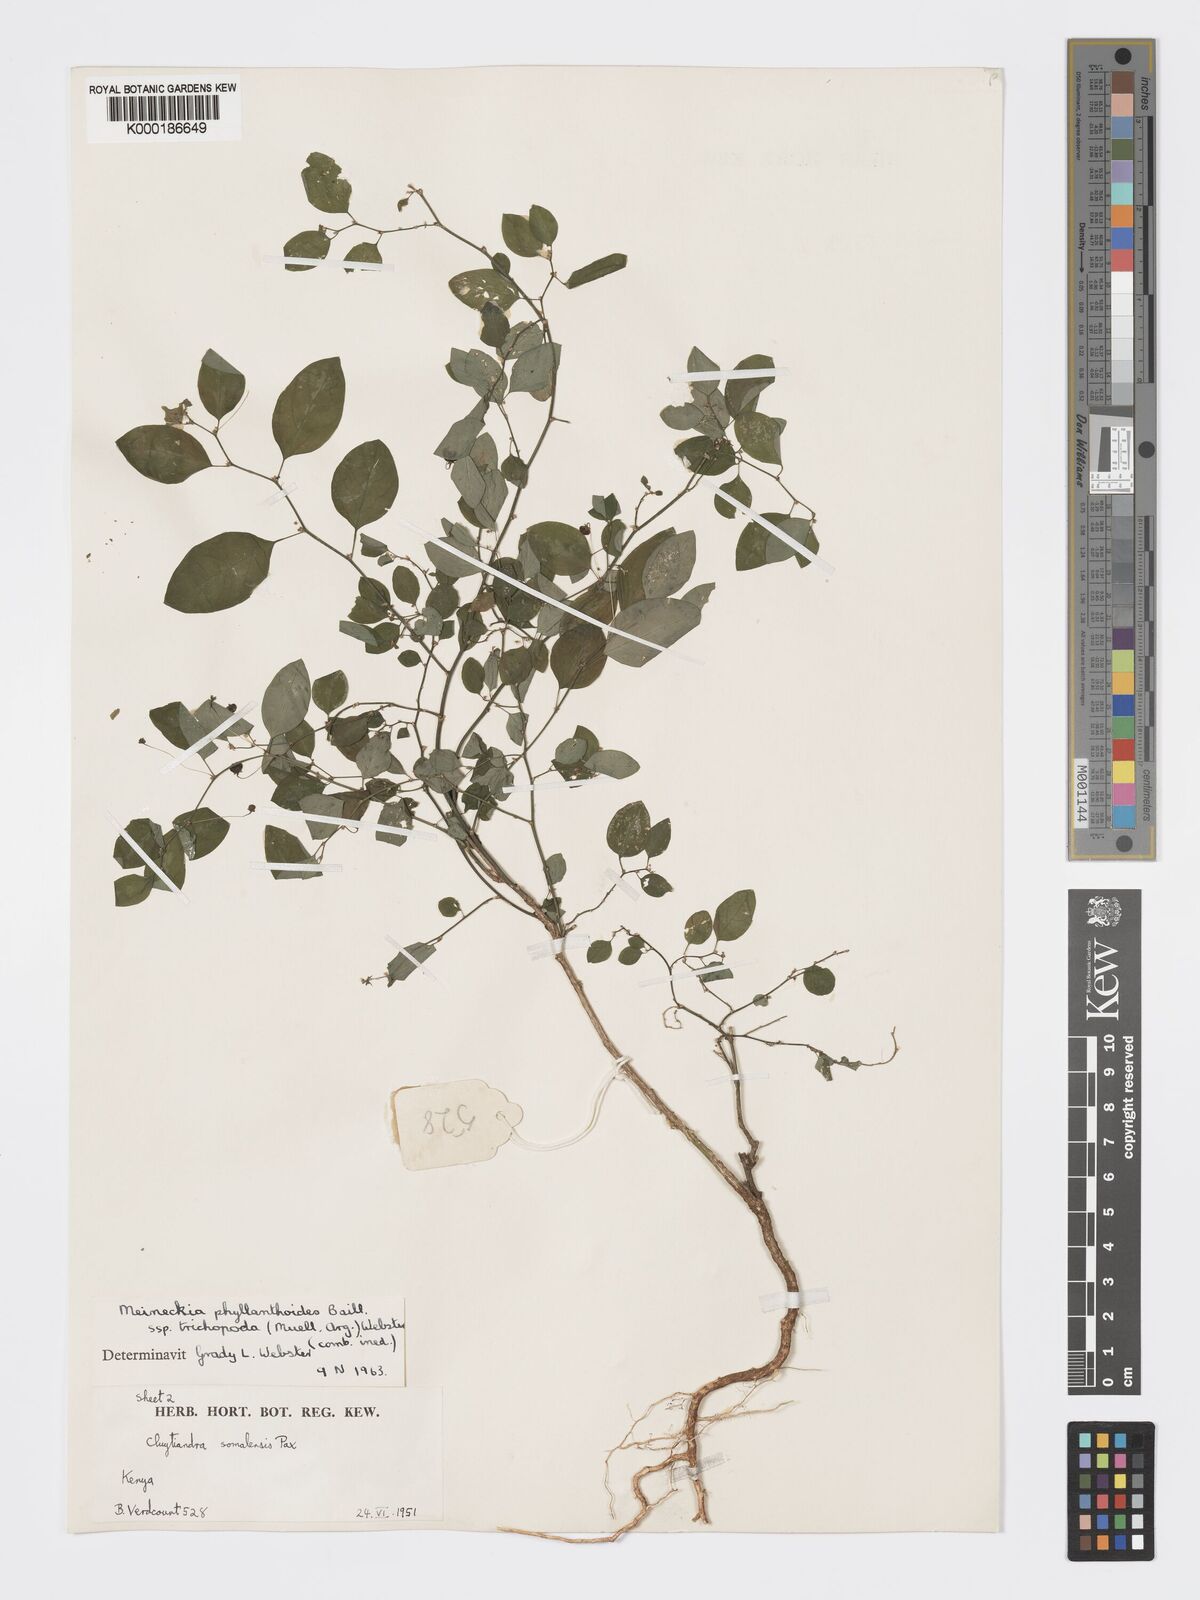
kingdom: Plantae
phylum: Tracheophyta
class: Magnoliopsida
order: Malpighiales
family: Phyllanthaceae
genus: Meineckia
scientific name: Meineckia phyllanthoides
